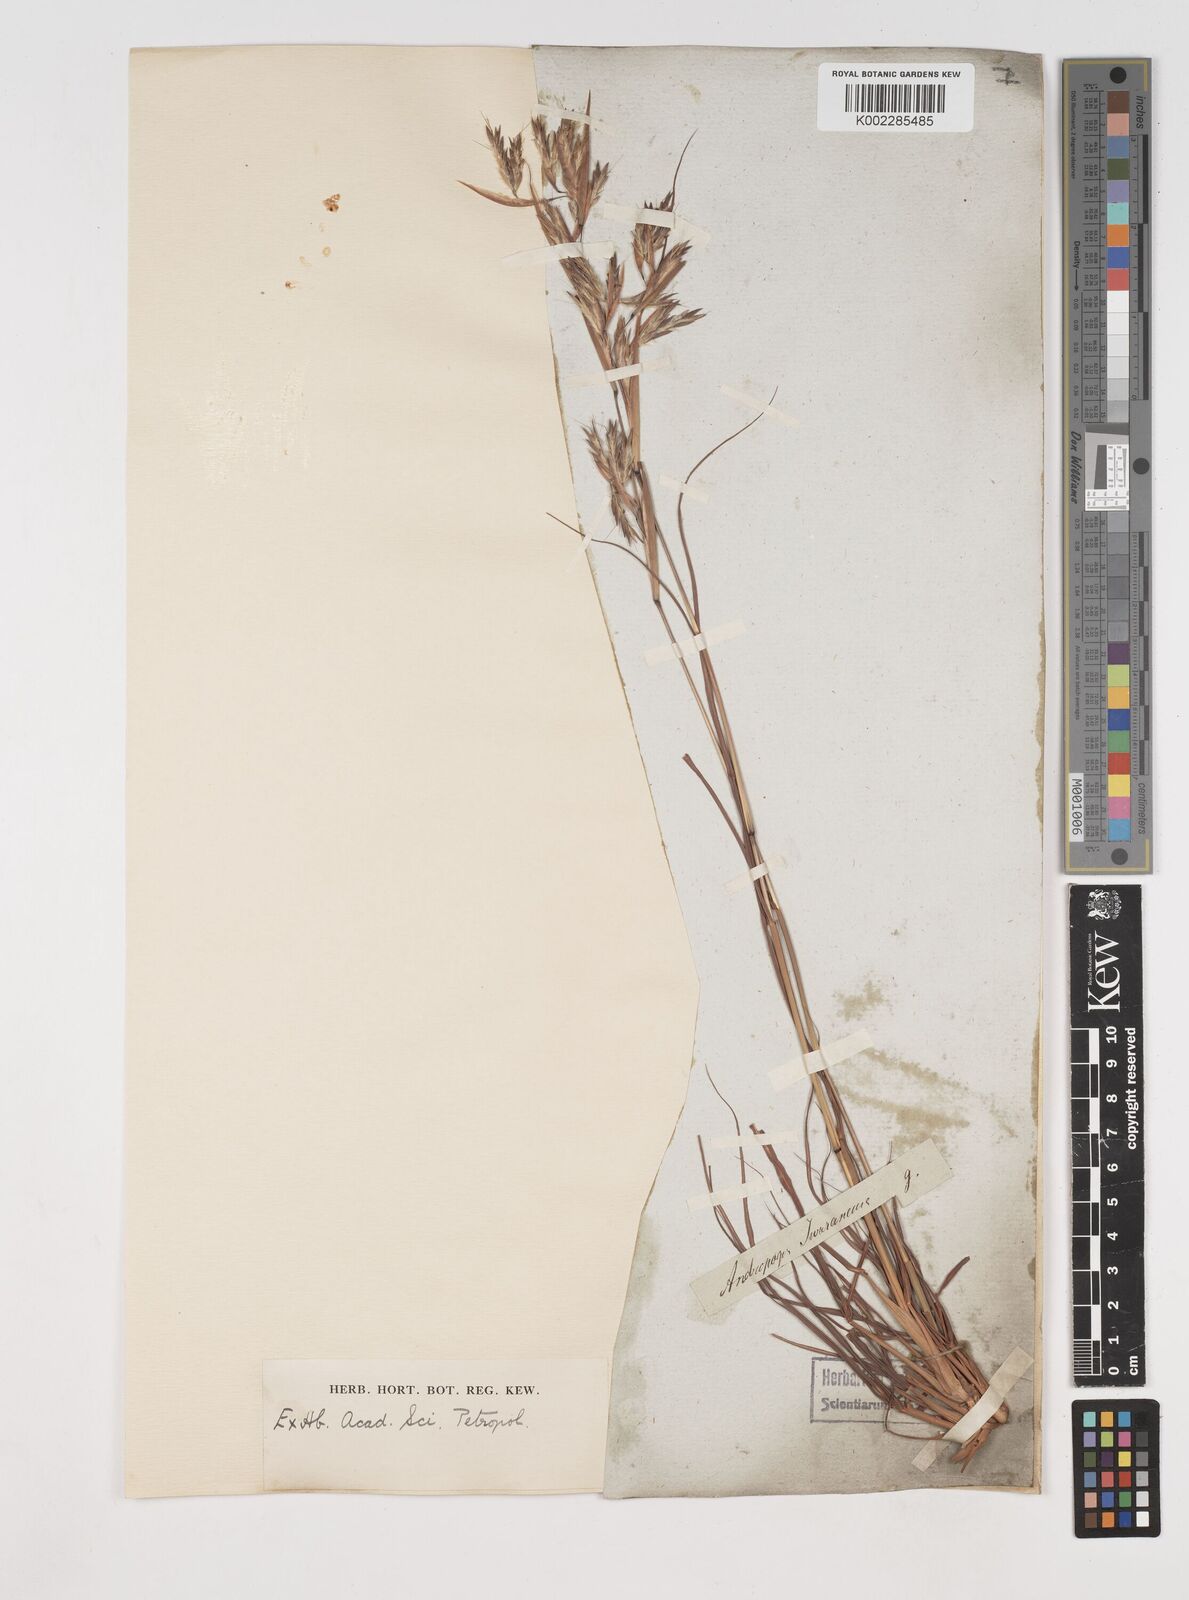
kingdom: Plantae
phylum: Tracheophyta
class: Liliopsida
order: Poales
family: Poaceae
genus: Cymbopogon
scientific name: Cymbopogon pospischilii
